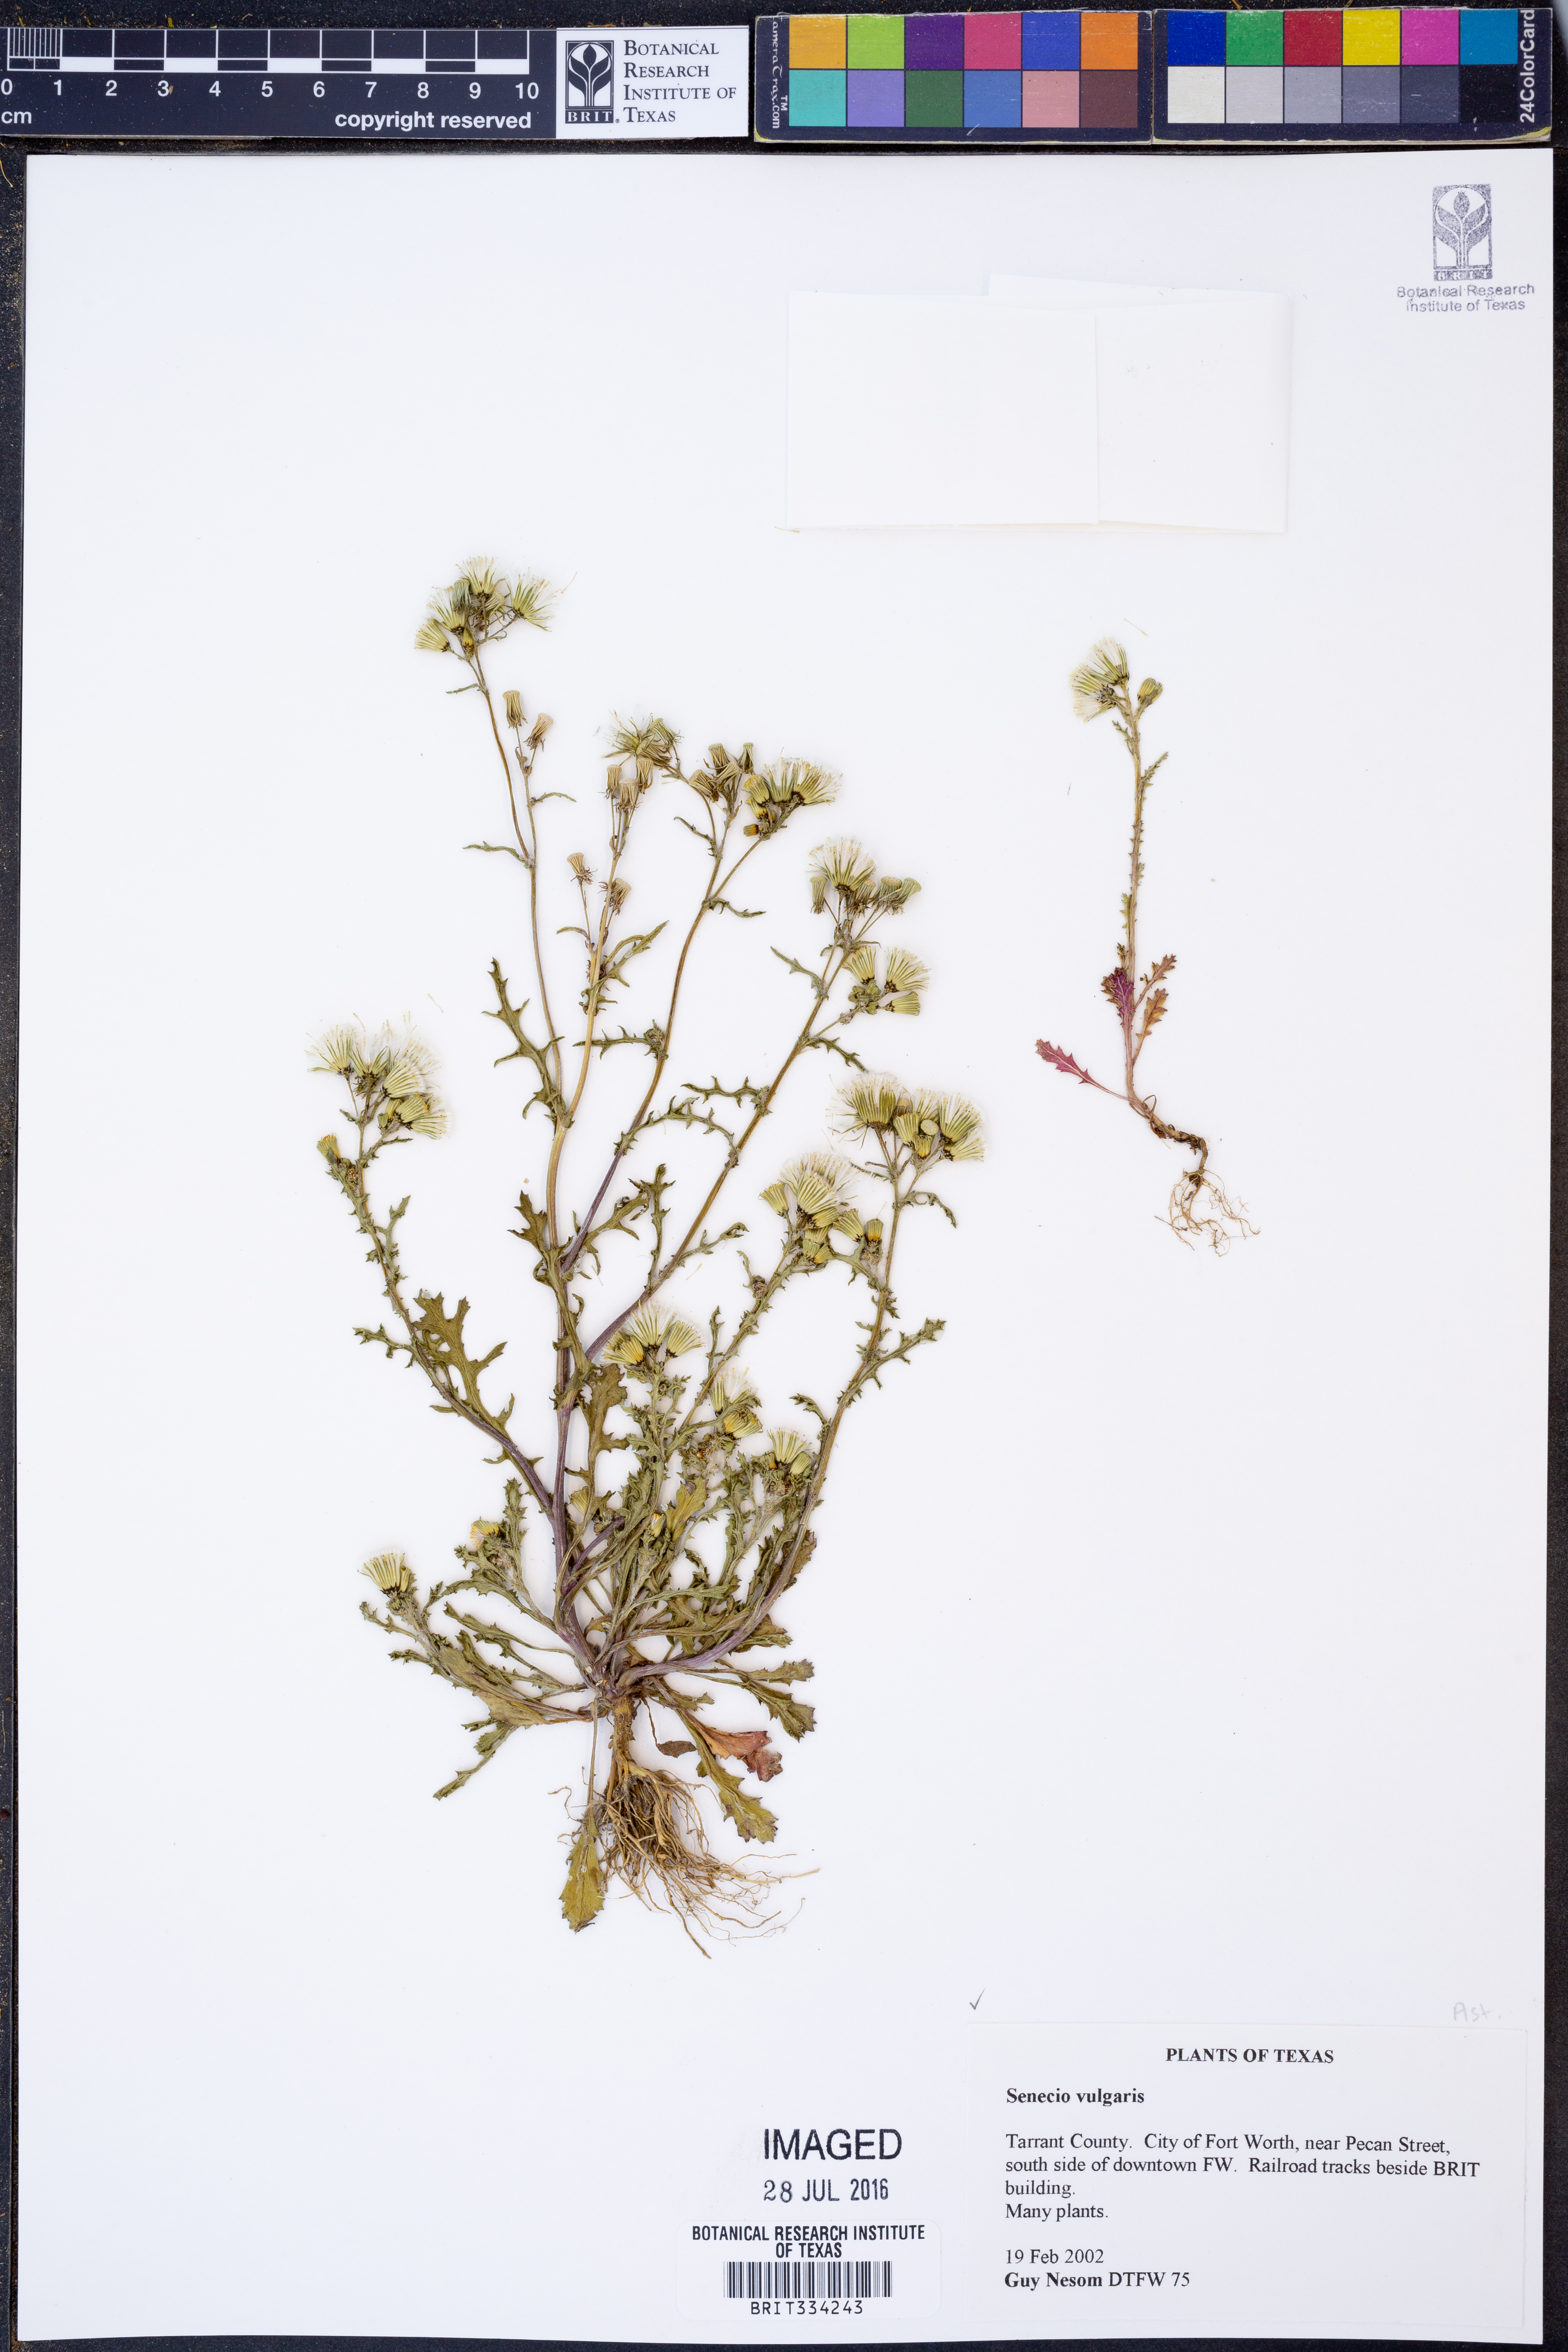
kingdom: Plantae
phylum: Tracheophyta
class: Magnoliopsida
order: Asterales
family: Asteraceae
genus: Senecio
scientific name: Senecio vulgaris
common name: Old-man-in-the-spring
